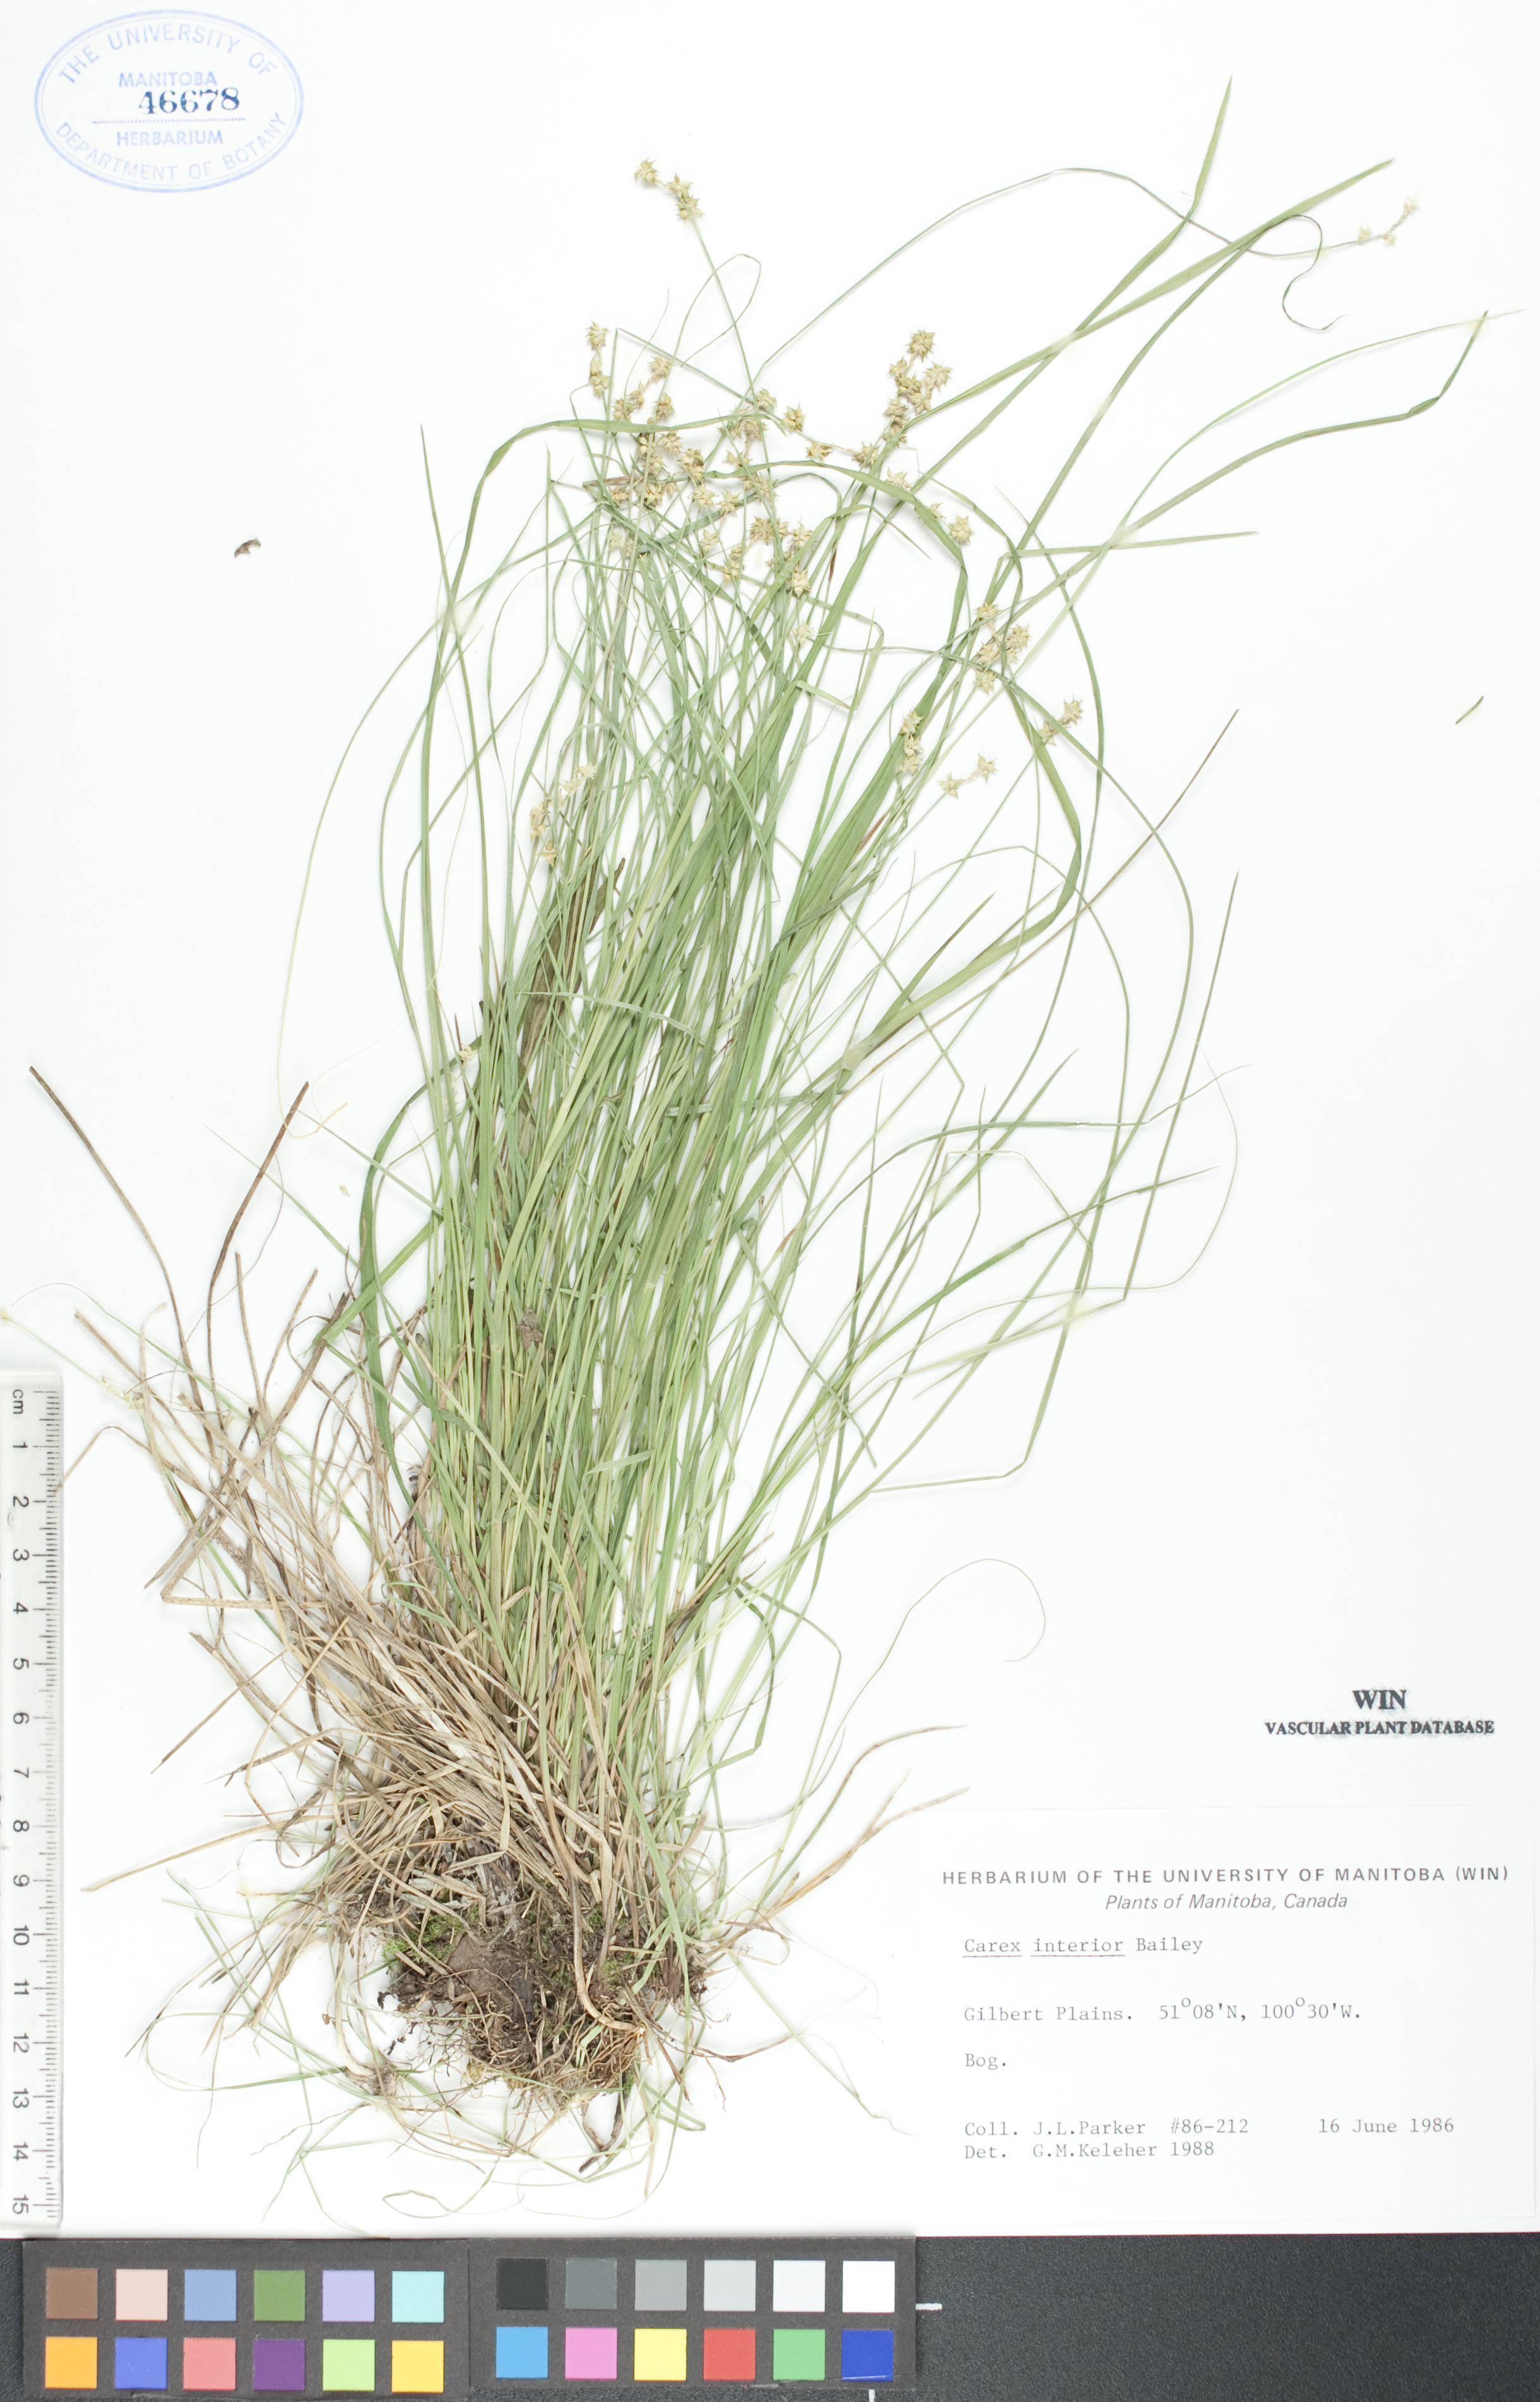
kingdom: Plantae
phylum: Tracheophyta
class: Liliopsida
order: Poales
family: Cyperaceae
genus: Carex
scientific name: Carex interior
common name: Inland sedge
